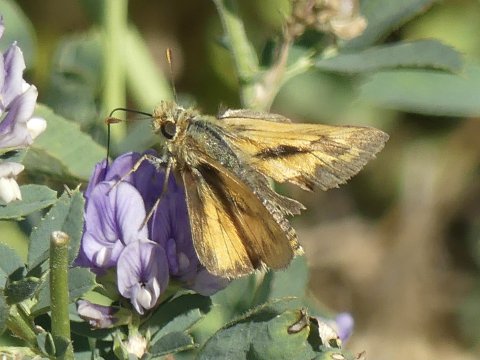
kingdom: Animalia
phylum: Arthropoda
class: Insecta
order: Lepidoptera
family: Hesperiidae
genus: Ochlodes
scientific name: Ochlodes sylvanoides
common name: Woodland Skipper
